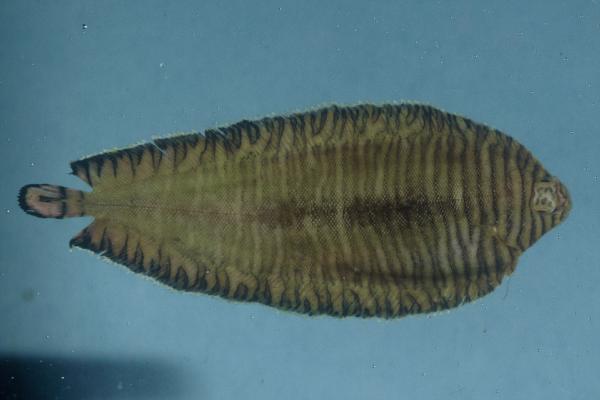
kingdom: Animalia
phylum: Chordata
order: Pleuronectiformes
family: Soleidae
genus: Soleichthys
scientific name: Soleichthys heterorhinos
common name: Banded sole
